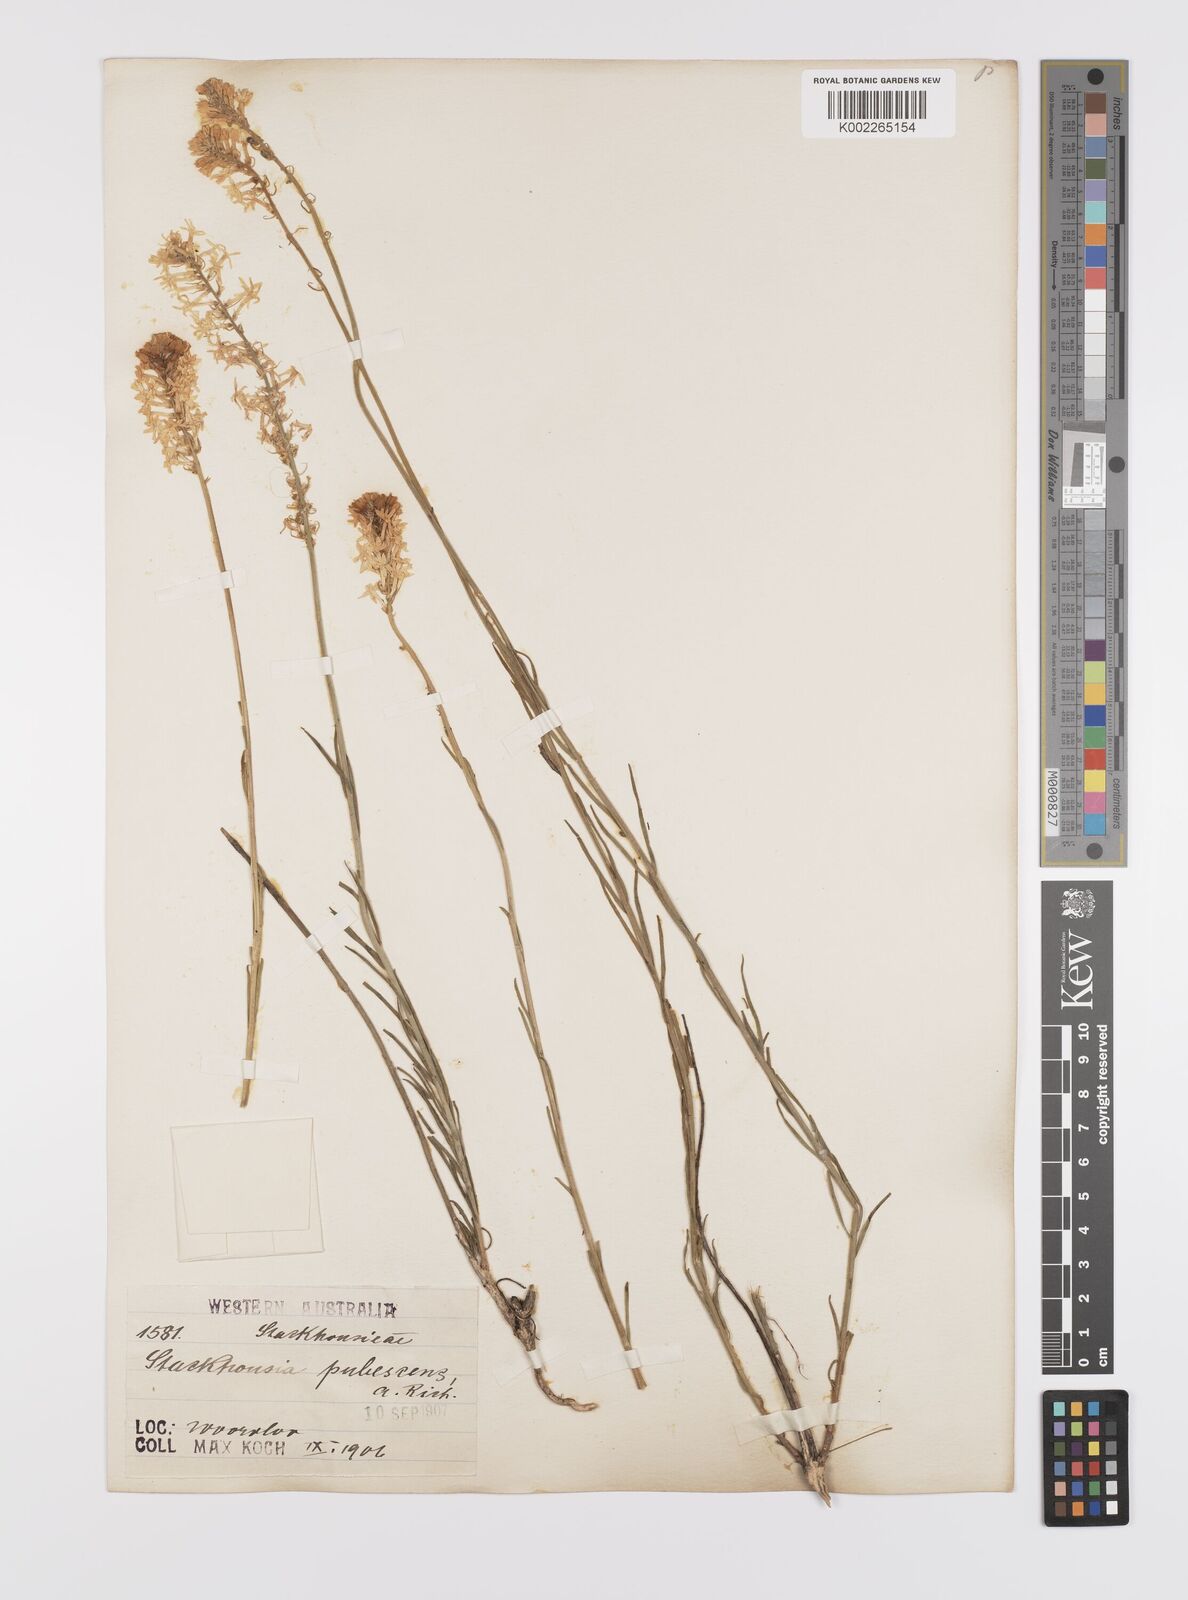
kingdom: Plantae
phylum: Tracheophyta
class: Magnoliopsida
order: Celastrales
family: Celastraceae
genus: Stackhousia
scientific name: Stackhousia monogyna
